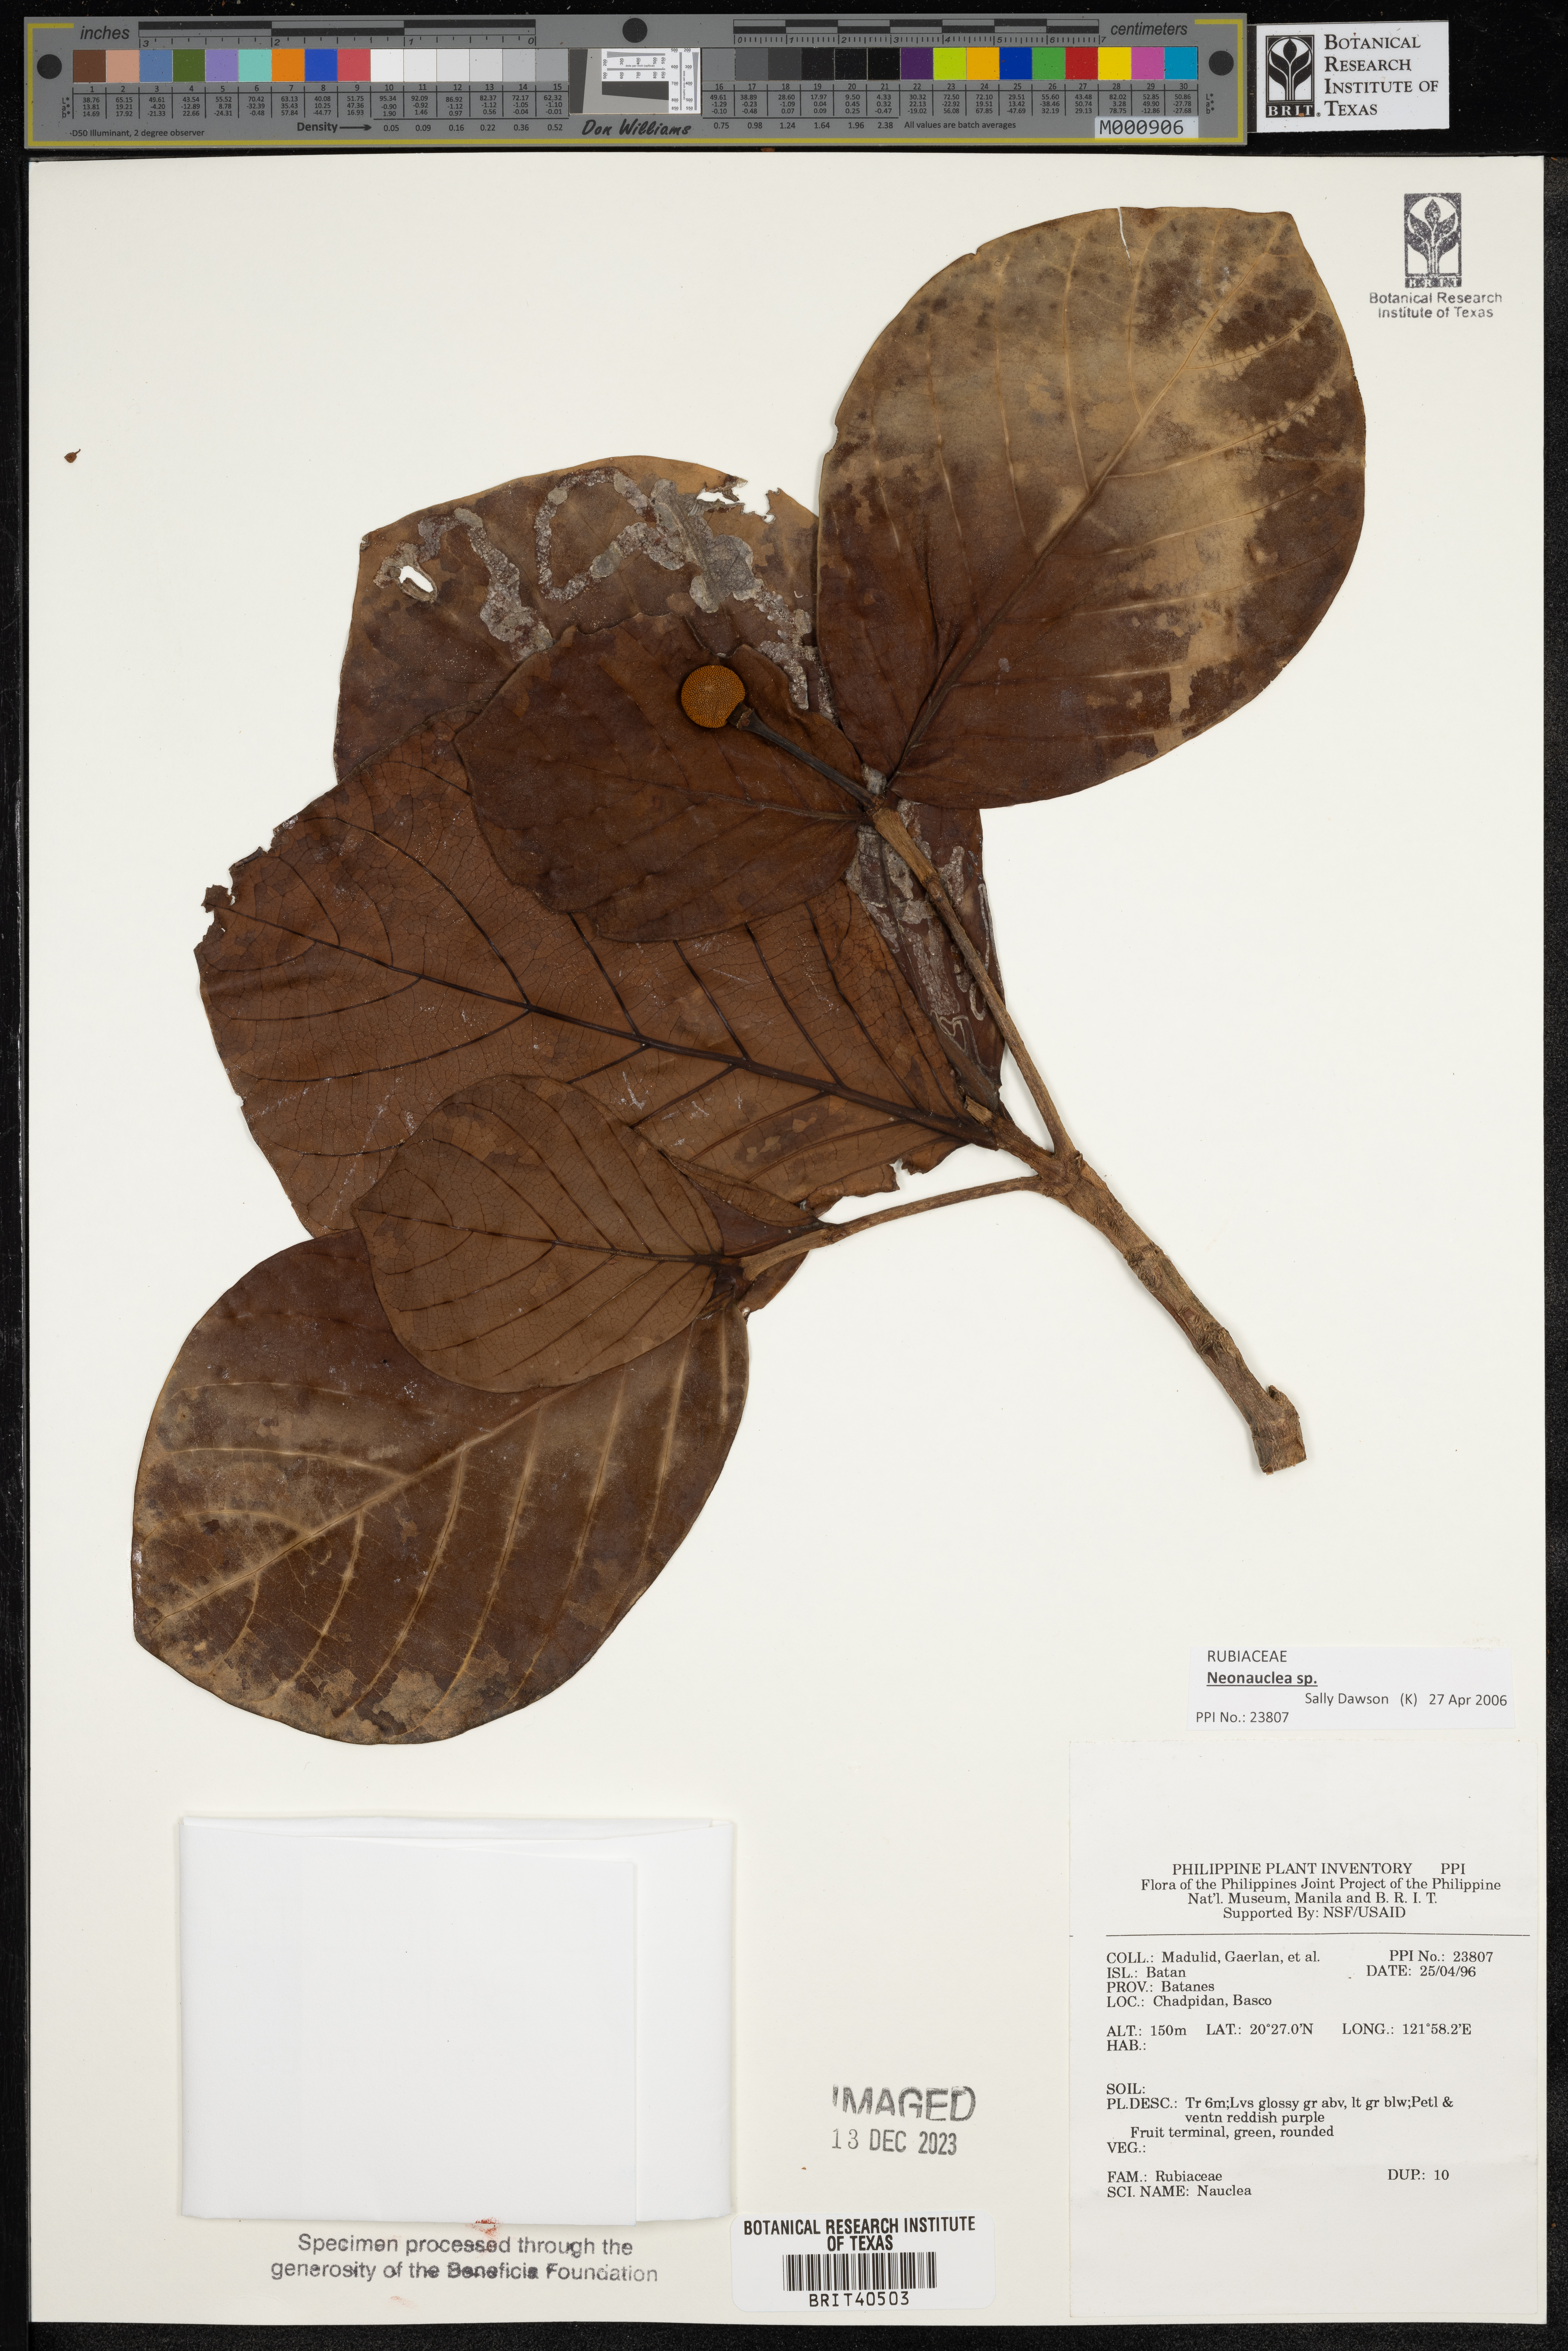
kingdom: Plantae
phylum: Tracheophyta
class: Magnoliopsida
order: Gentianales
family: Rubiaceae
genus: Nauclea
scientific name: Nauclea
